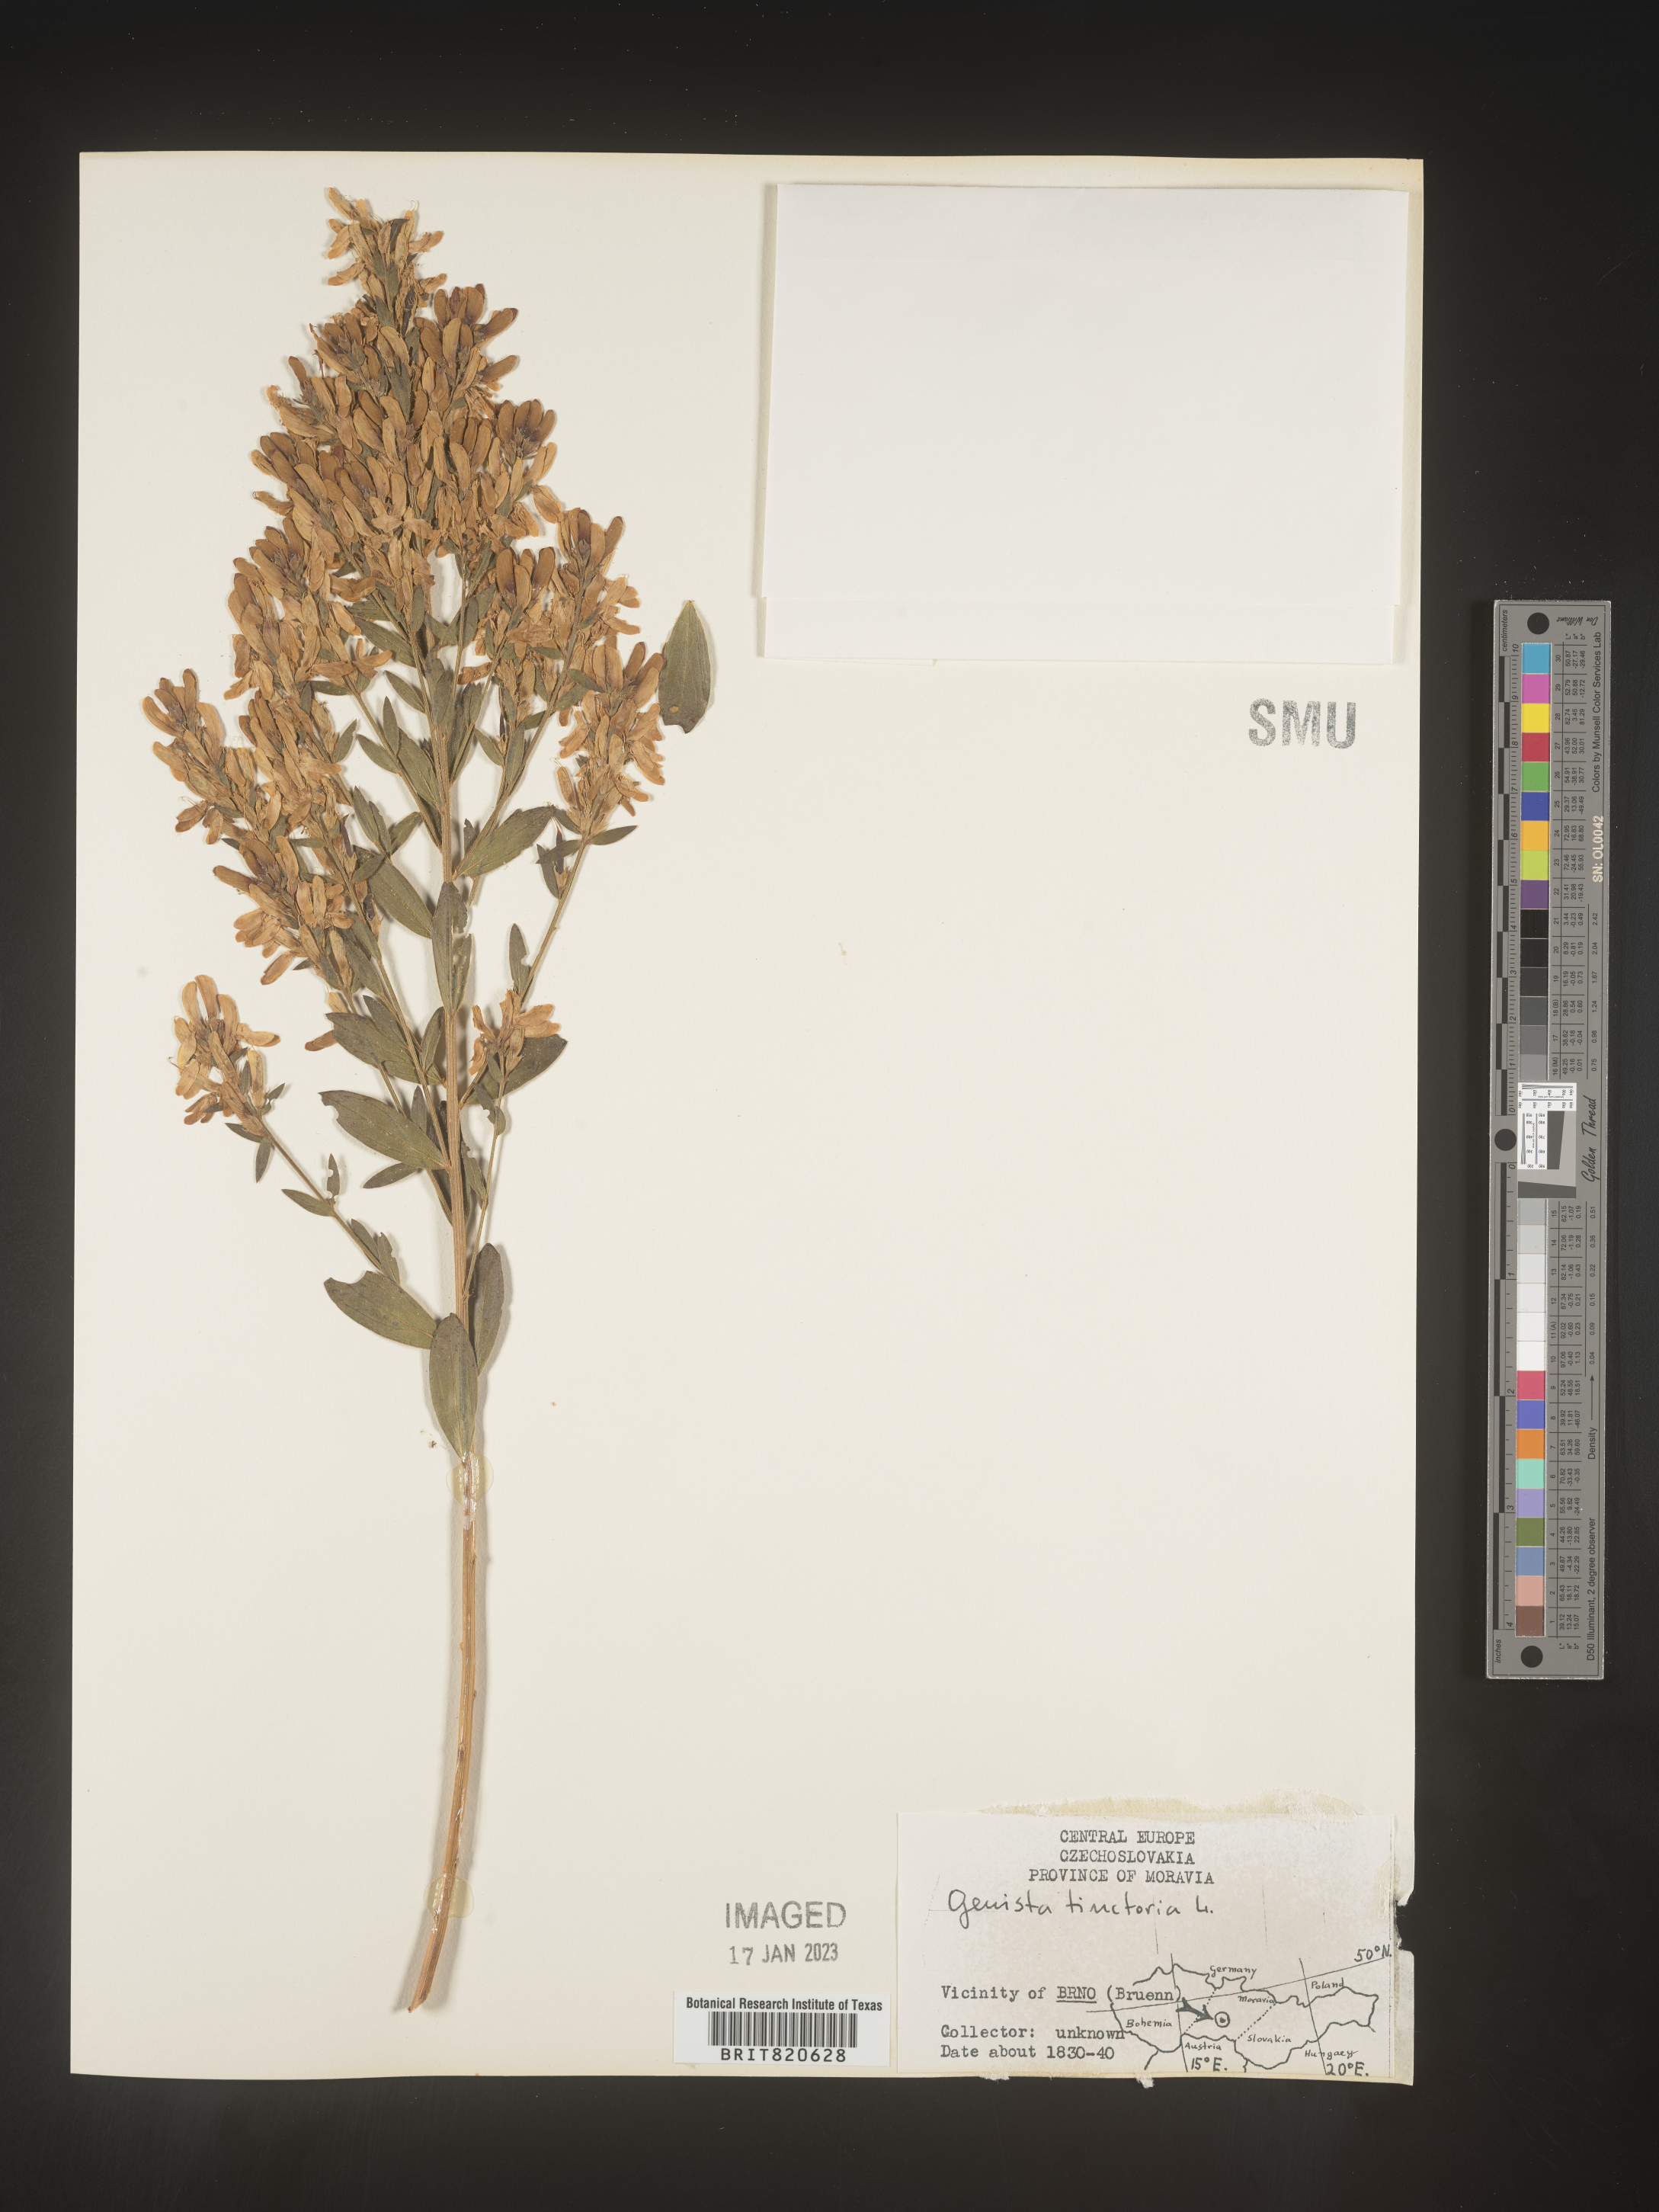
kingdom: Plantae
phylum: Tracheophyta
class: Magnoliopsida
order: Fabales
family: Fabaceae
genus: Genista
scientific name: Genista tinctoria
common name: Dyer's greenweed
